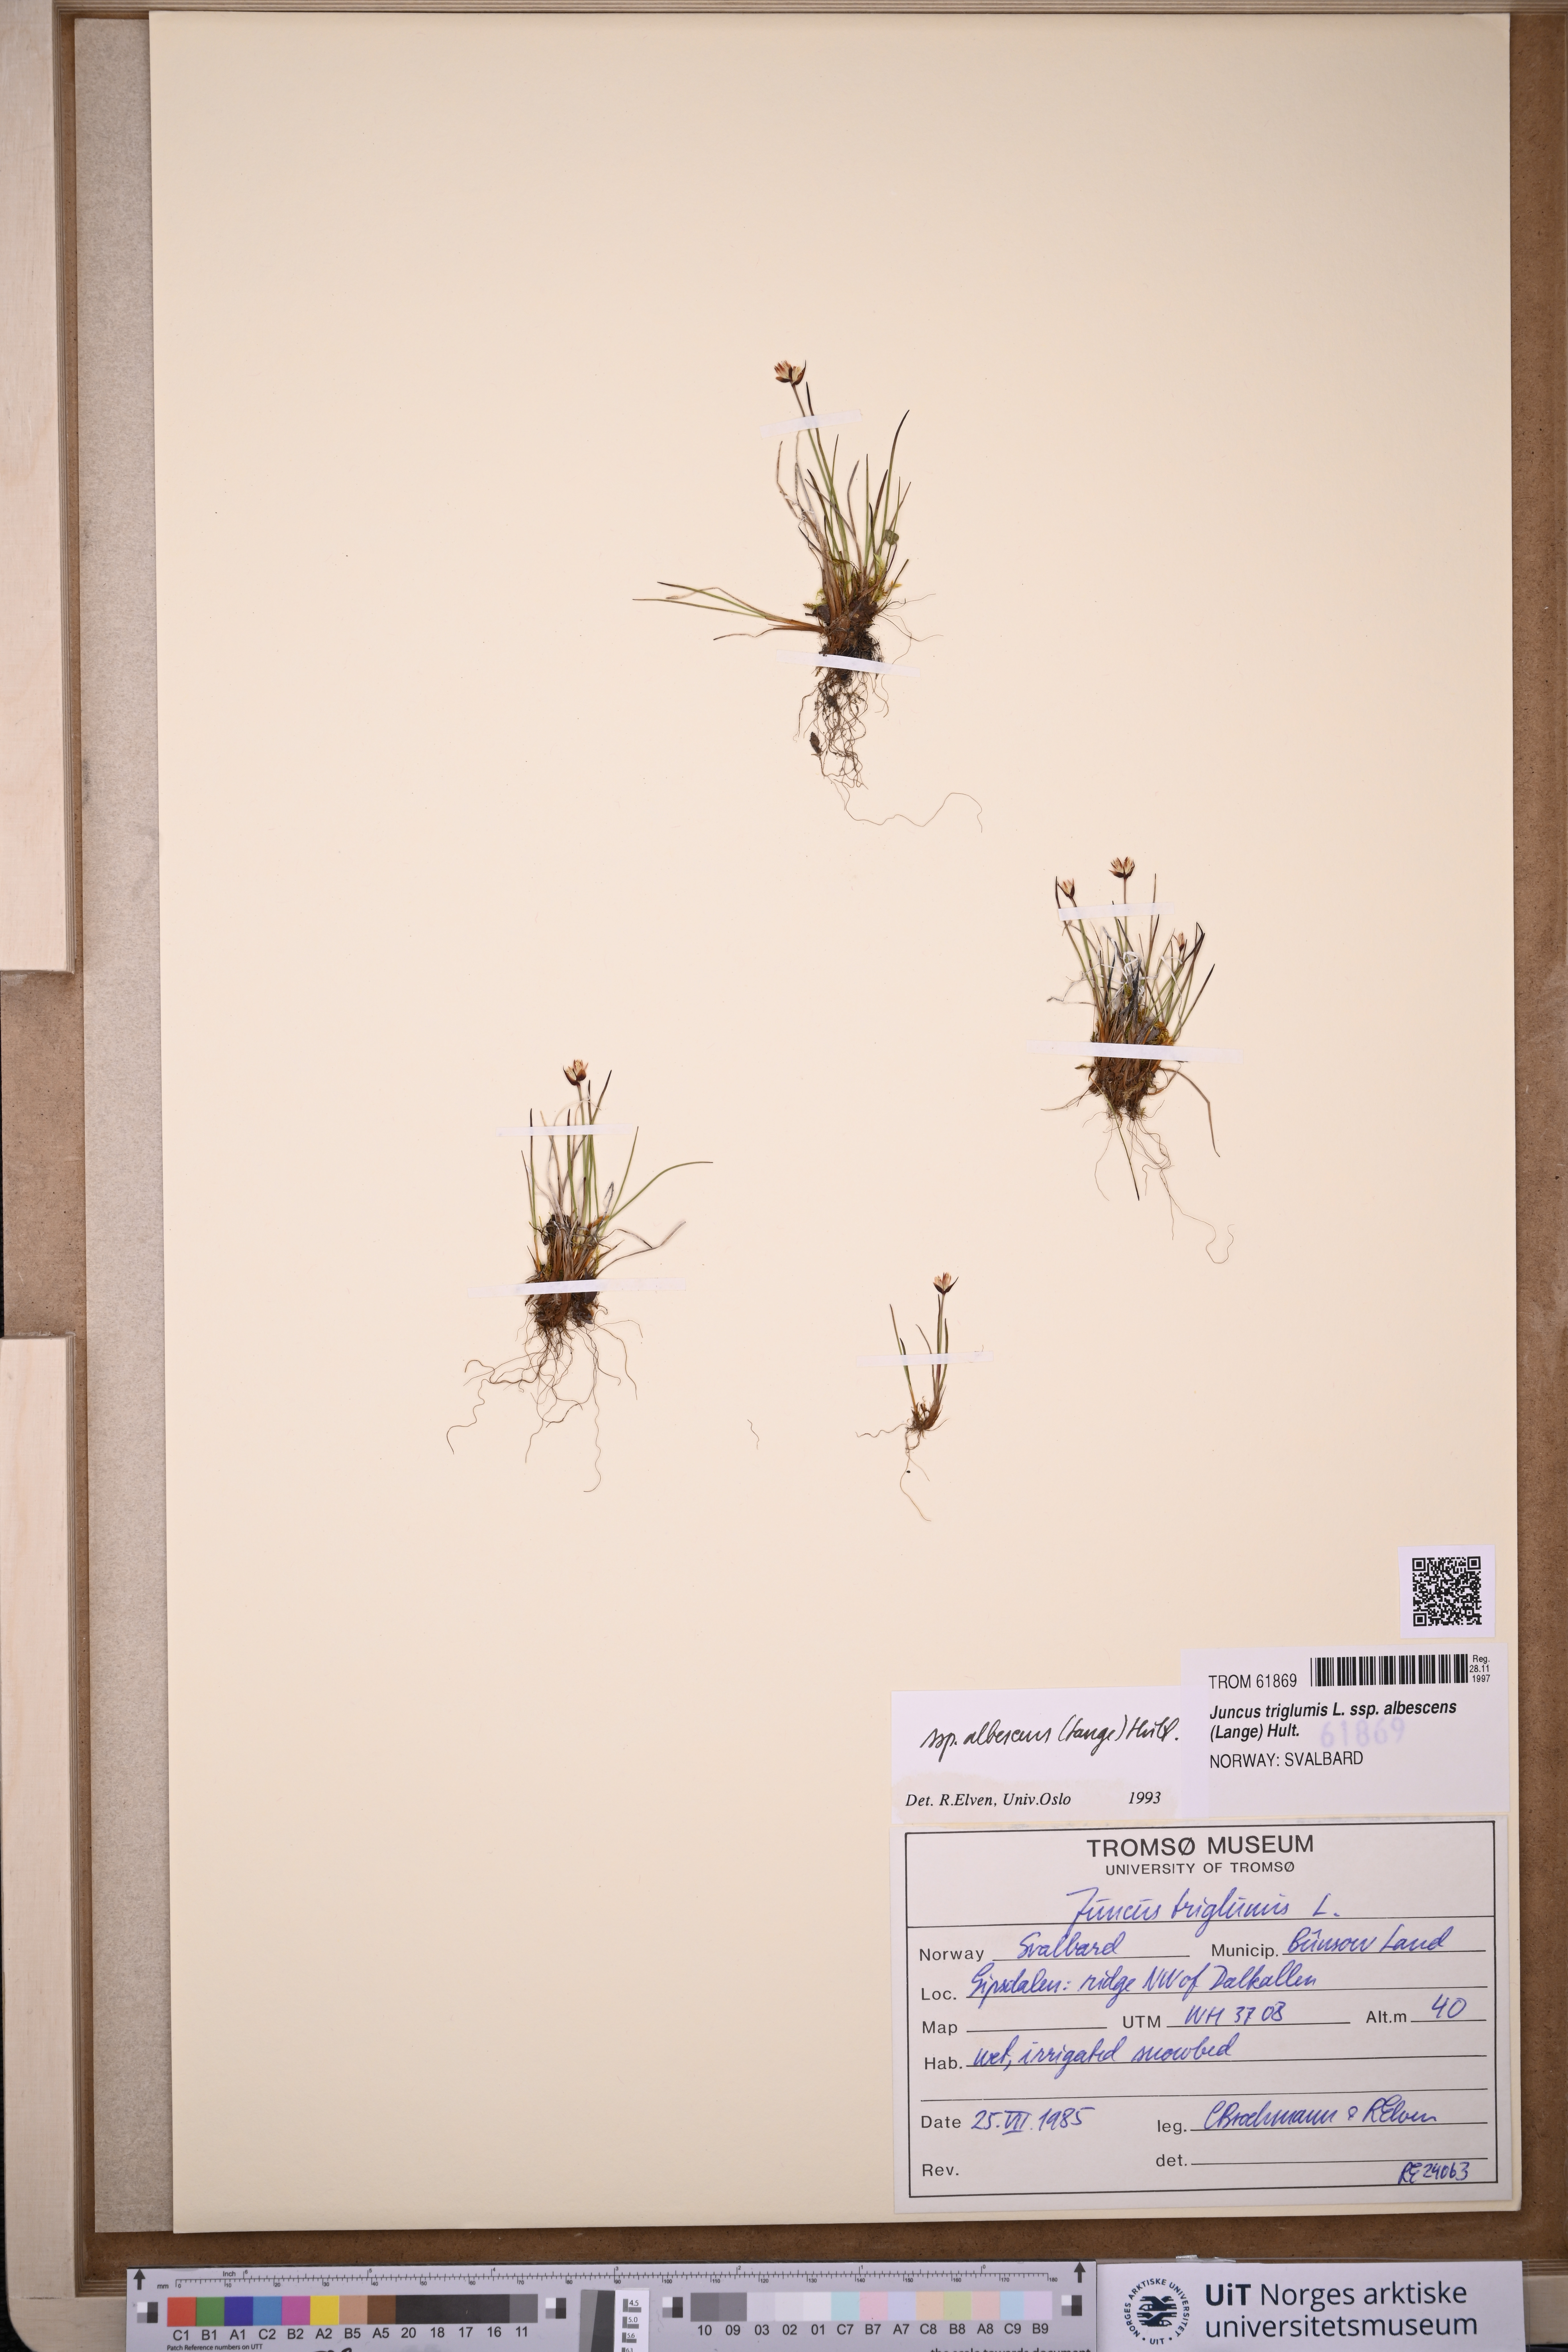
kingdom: Plantae
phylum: Tracheophyta
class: Liliopsida
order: Poales
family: Juncaceae
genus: Juncus
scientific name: Juncus albescens
